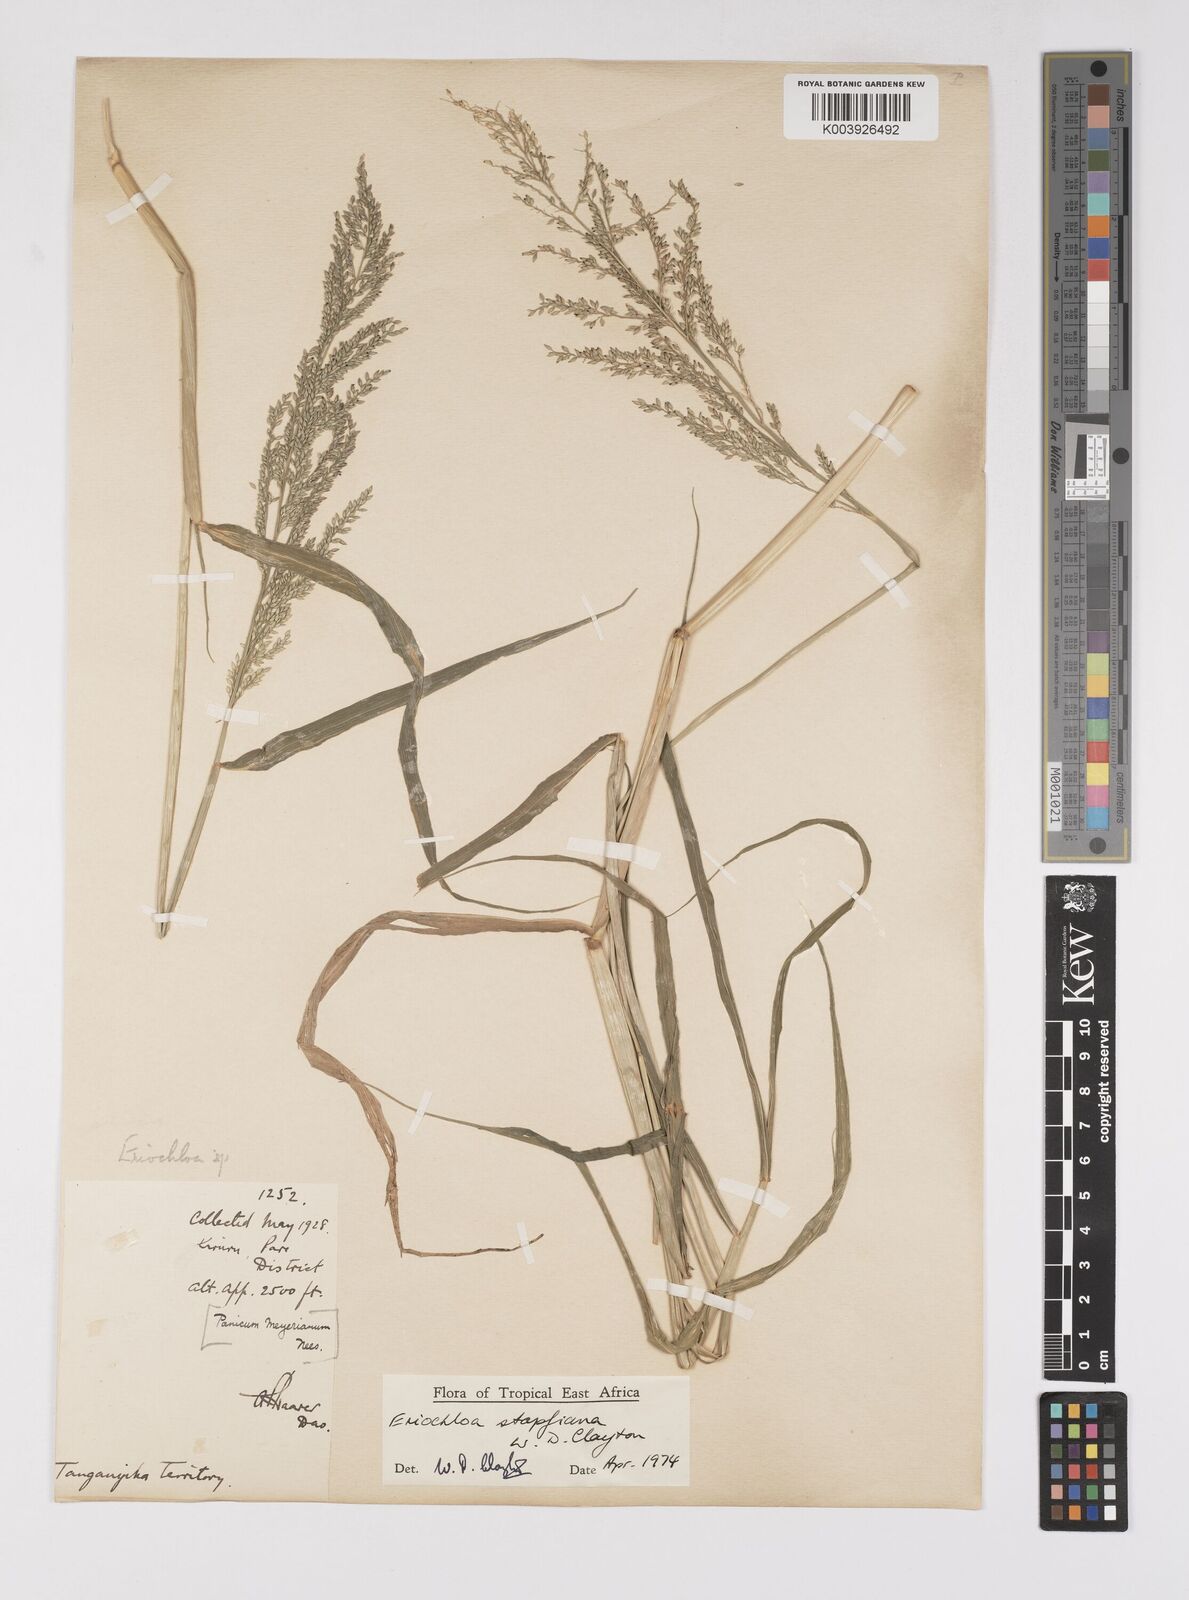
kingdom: Plantae
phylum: Tracheophyta
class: Liliopsida
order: Poales
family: Poaceae
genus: Eriochloa
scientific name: Eriochloa stapfiana
